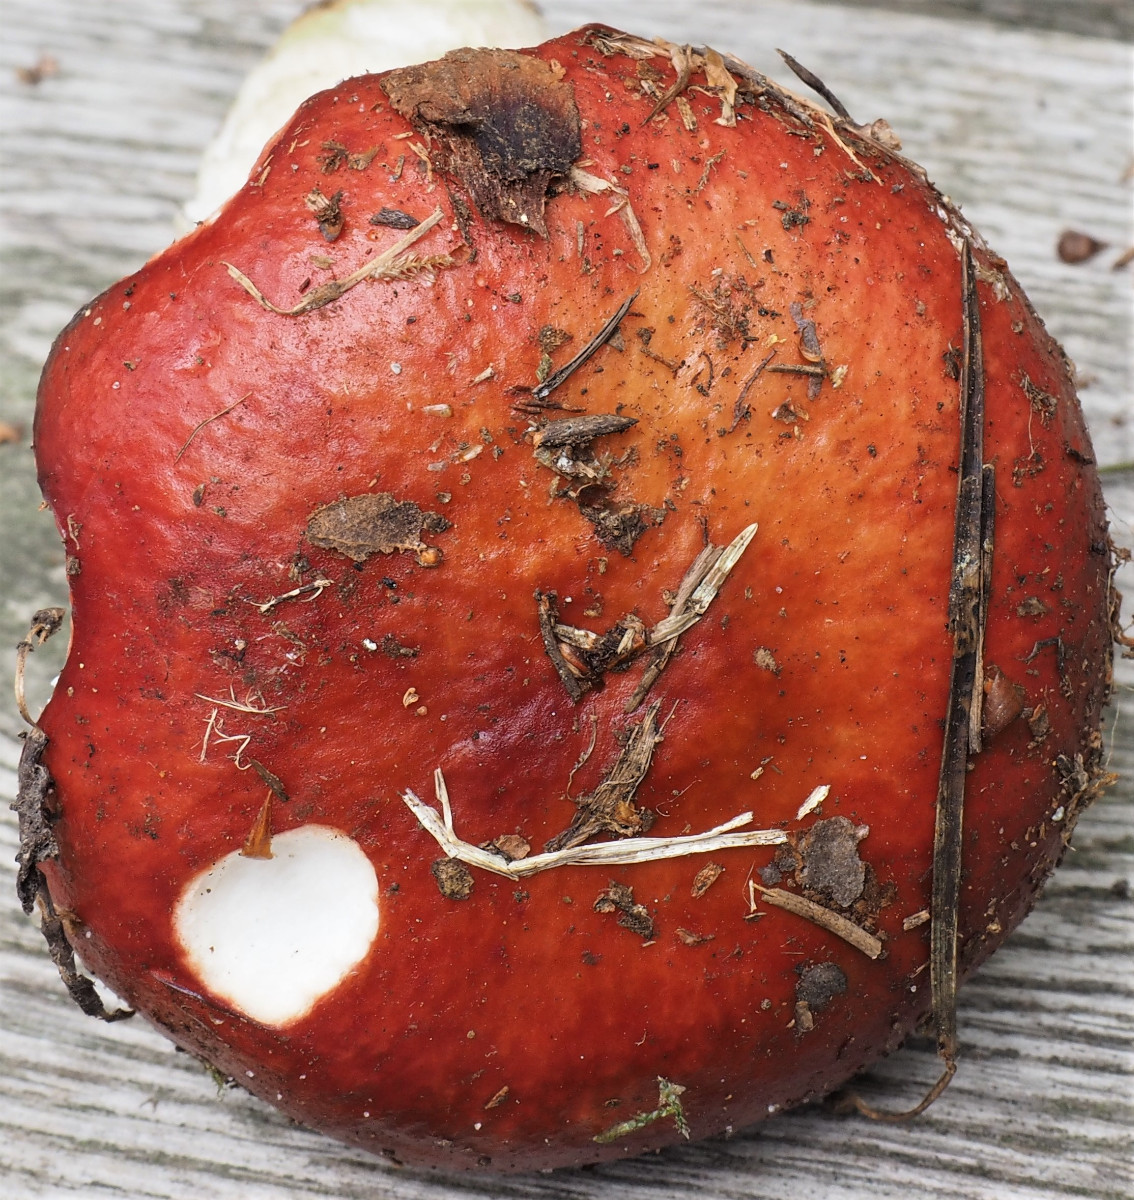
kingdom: Fungi
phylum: Basidiomycota
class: Agaricomycetes
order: Russulales
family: Russulaceae
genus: Russula
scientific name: Russula paludosa
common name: prægtig skørhat
